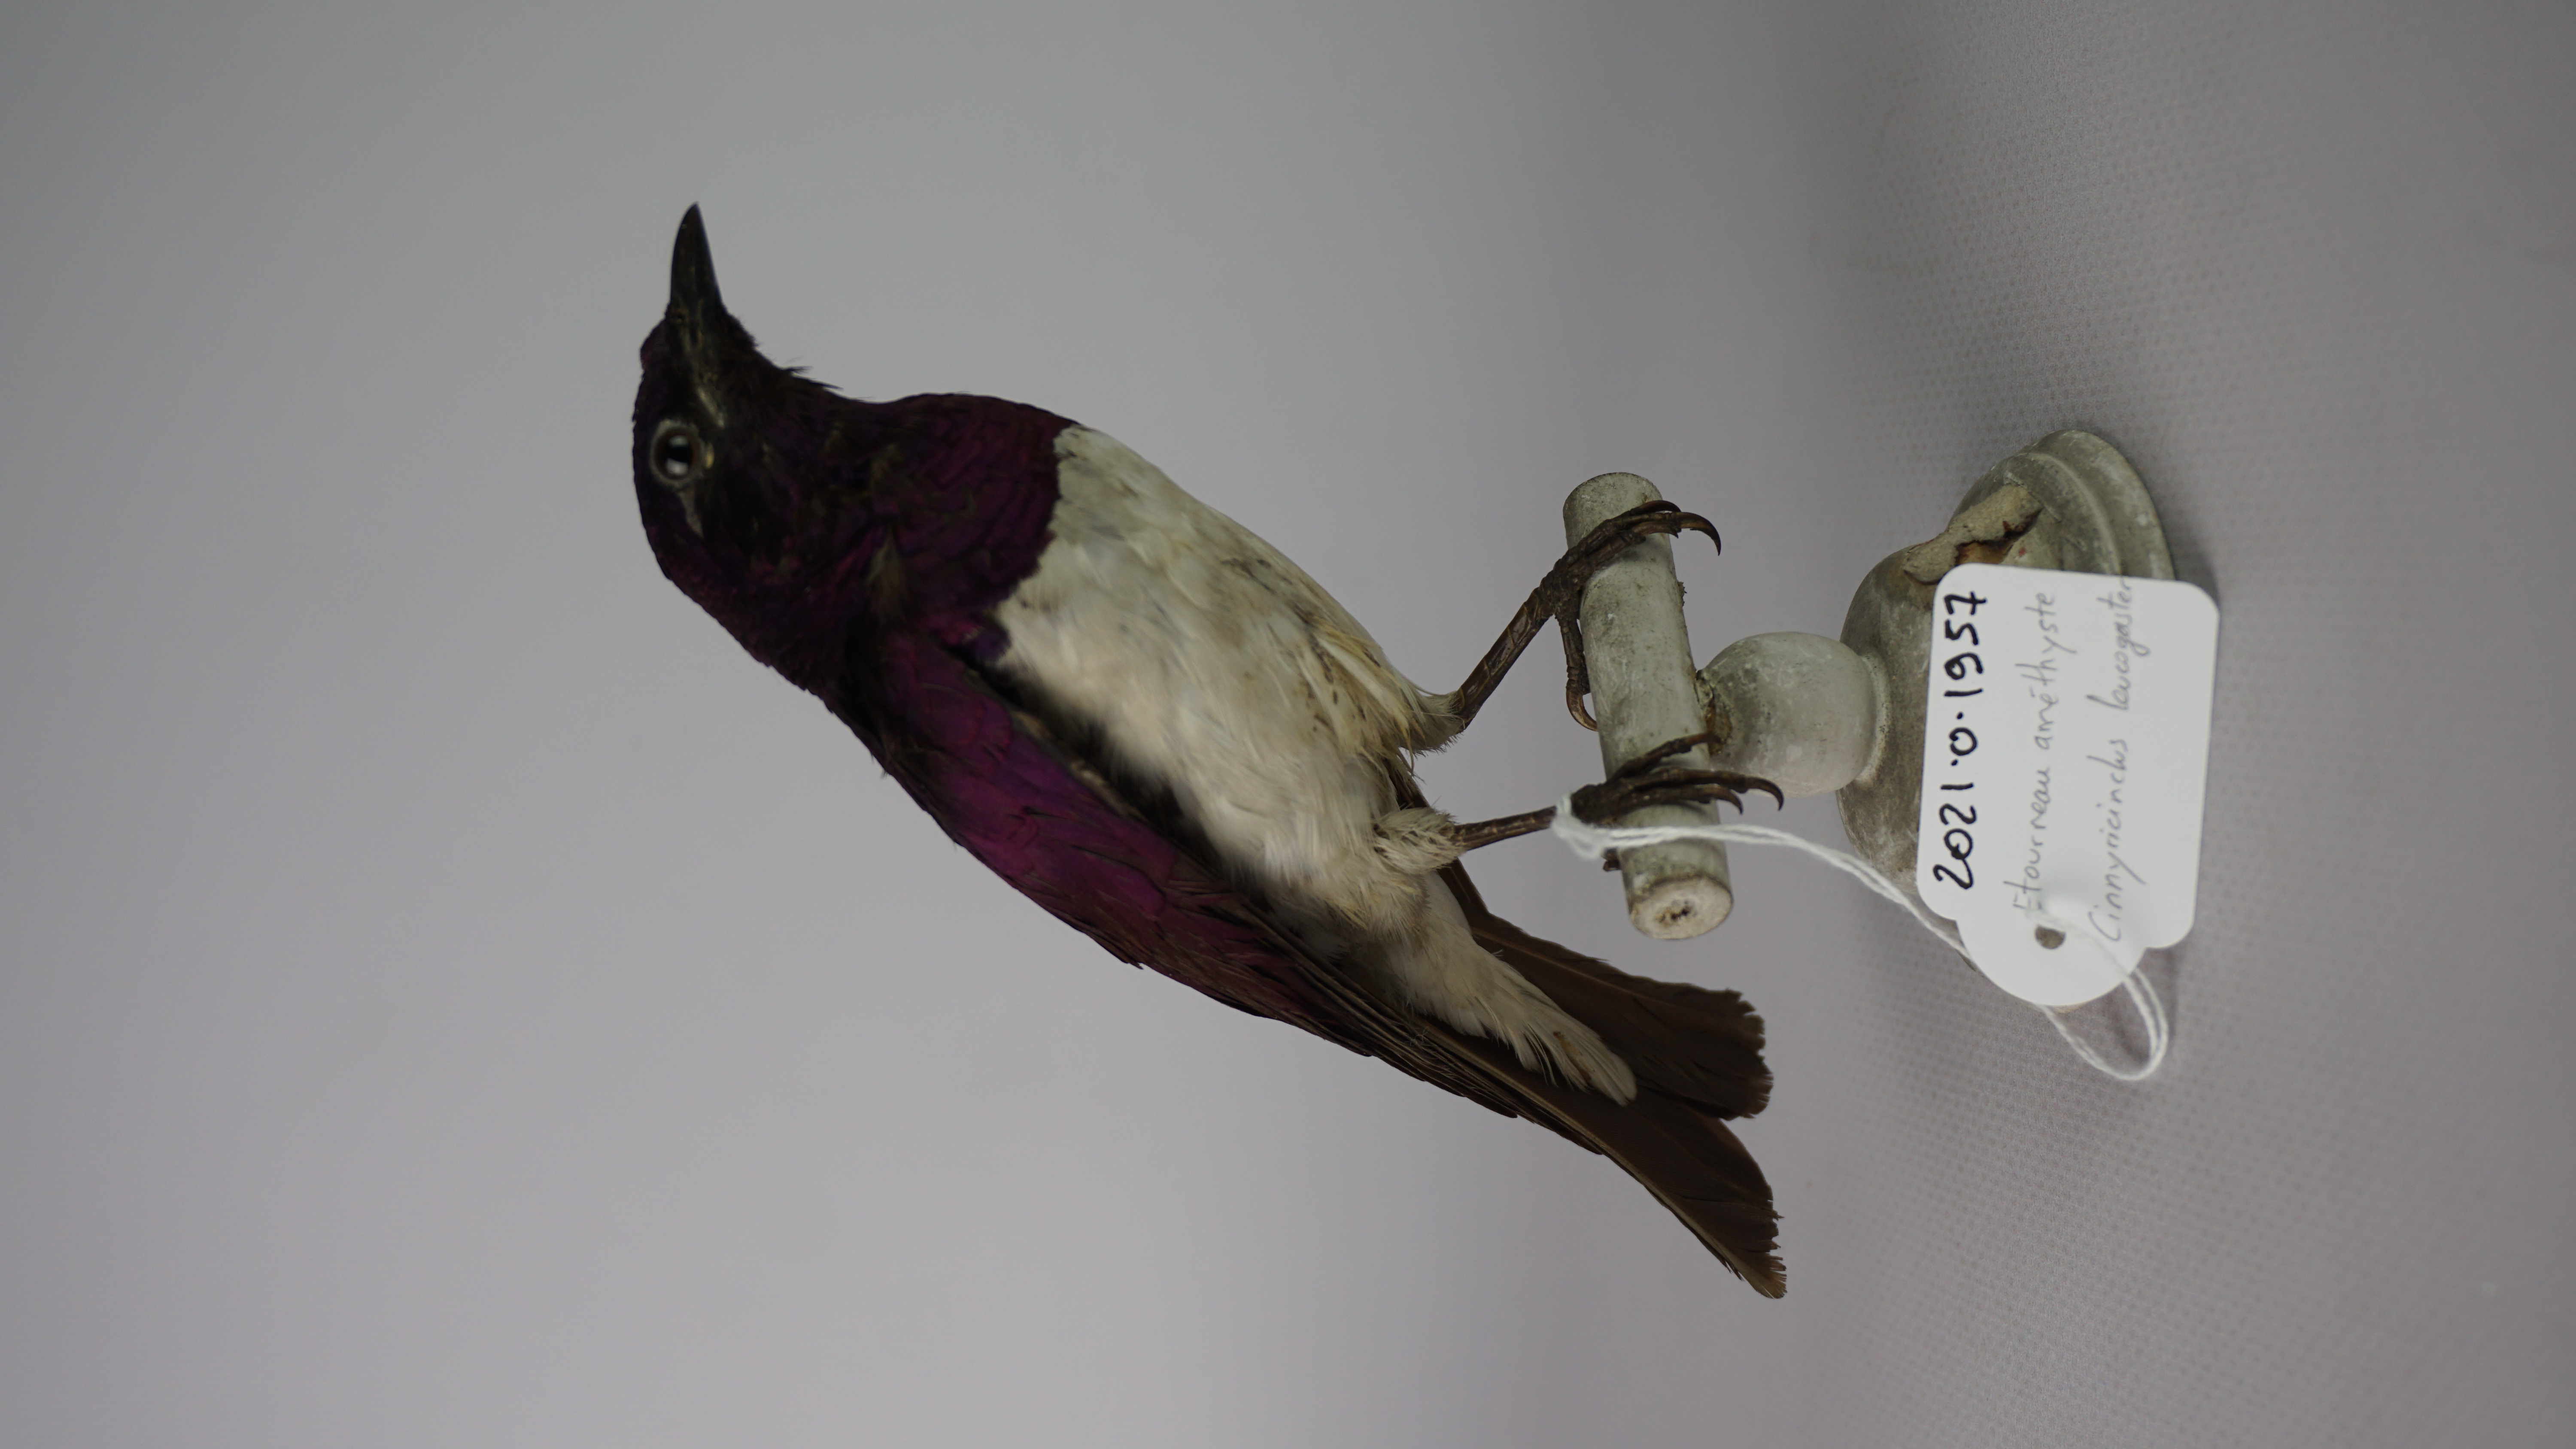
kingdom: Animalia
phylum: Chordata
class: Aves
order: Passeriformes
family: Sturnidae
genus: Cinnyricinclus
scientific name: Cinnyricinclus leucogaster
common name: Violet-backed starling
